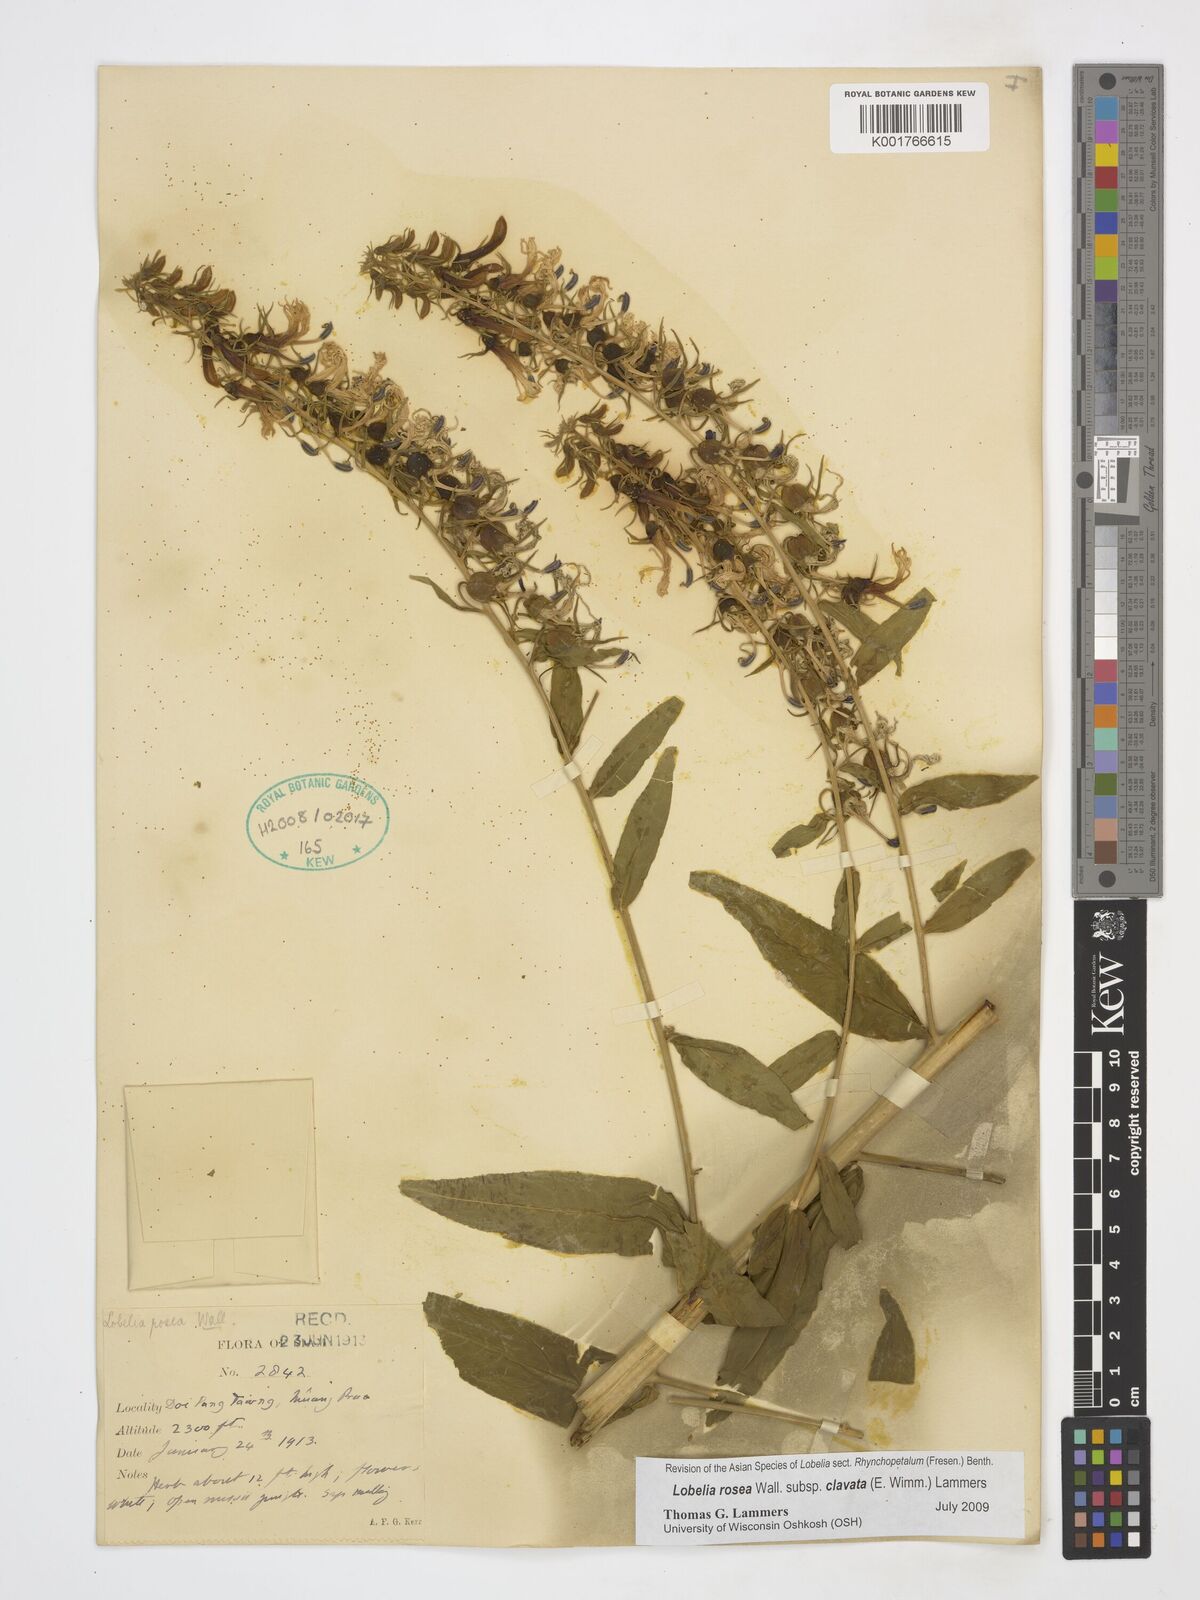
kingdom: Plantae
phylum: Tracheophyta
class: Magnoliopsida
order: Asterales
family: Campanulaceae
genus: Lobelia
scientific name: Lobelia rosea
